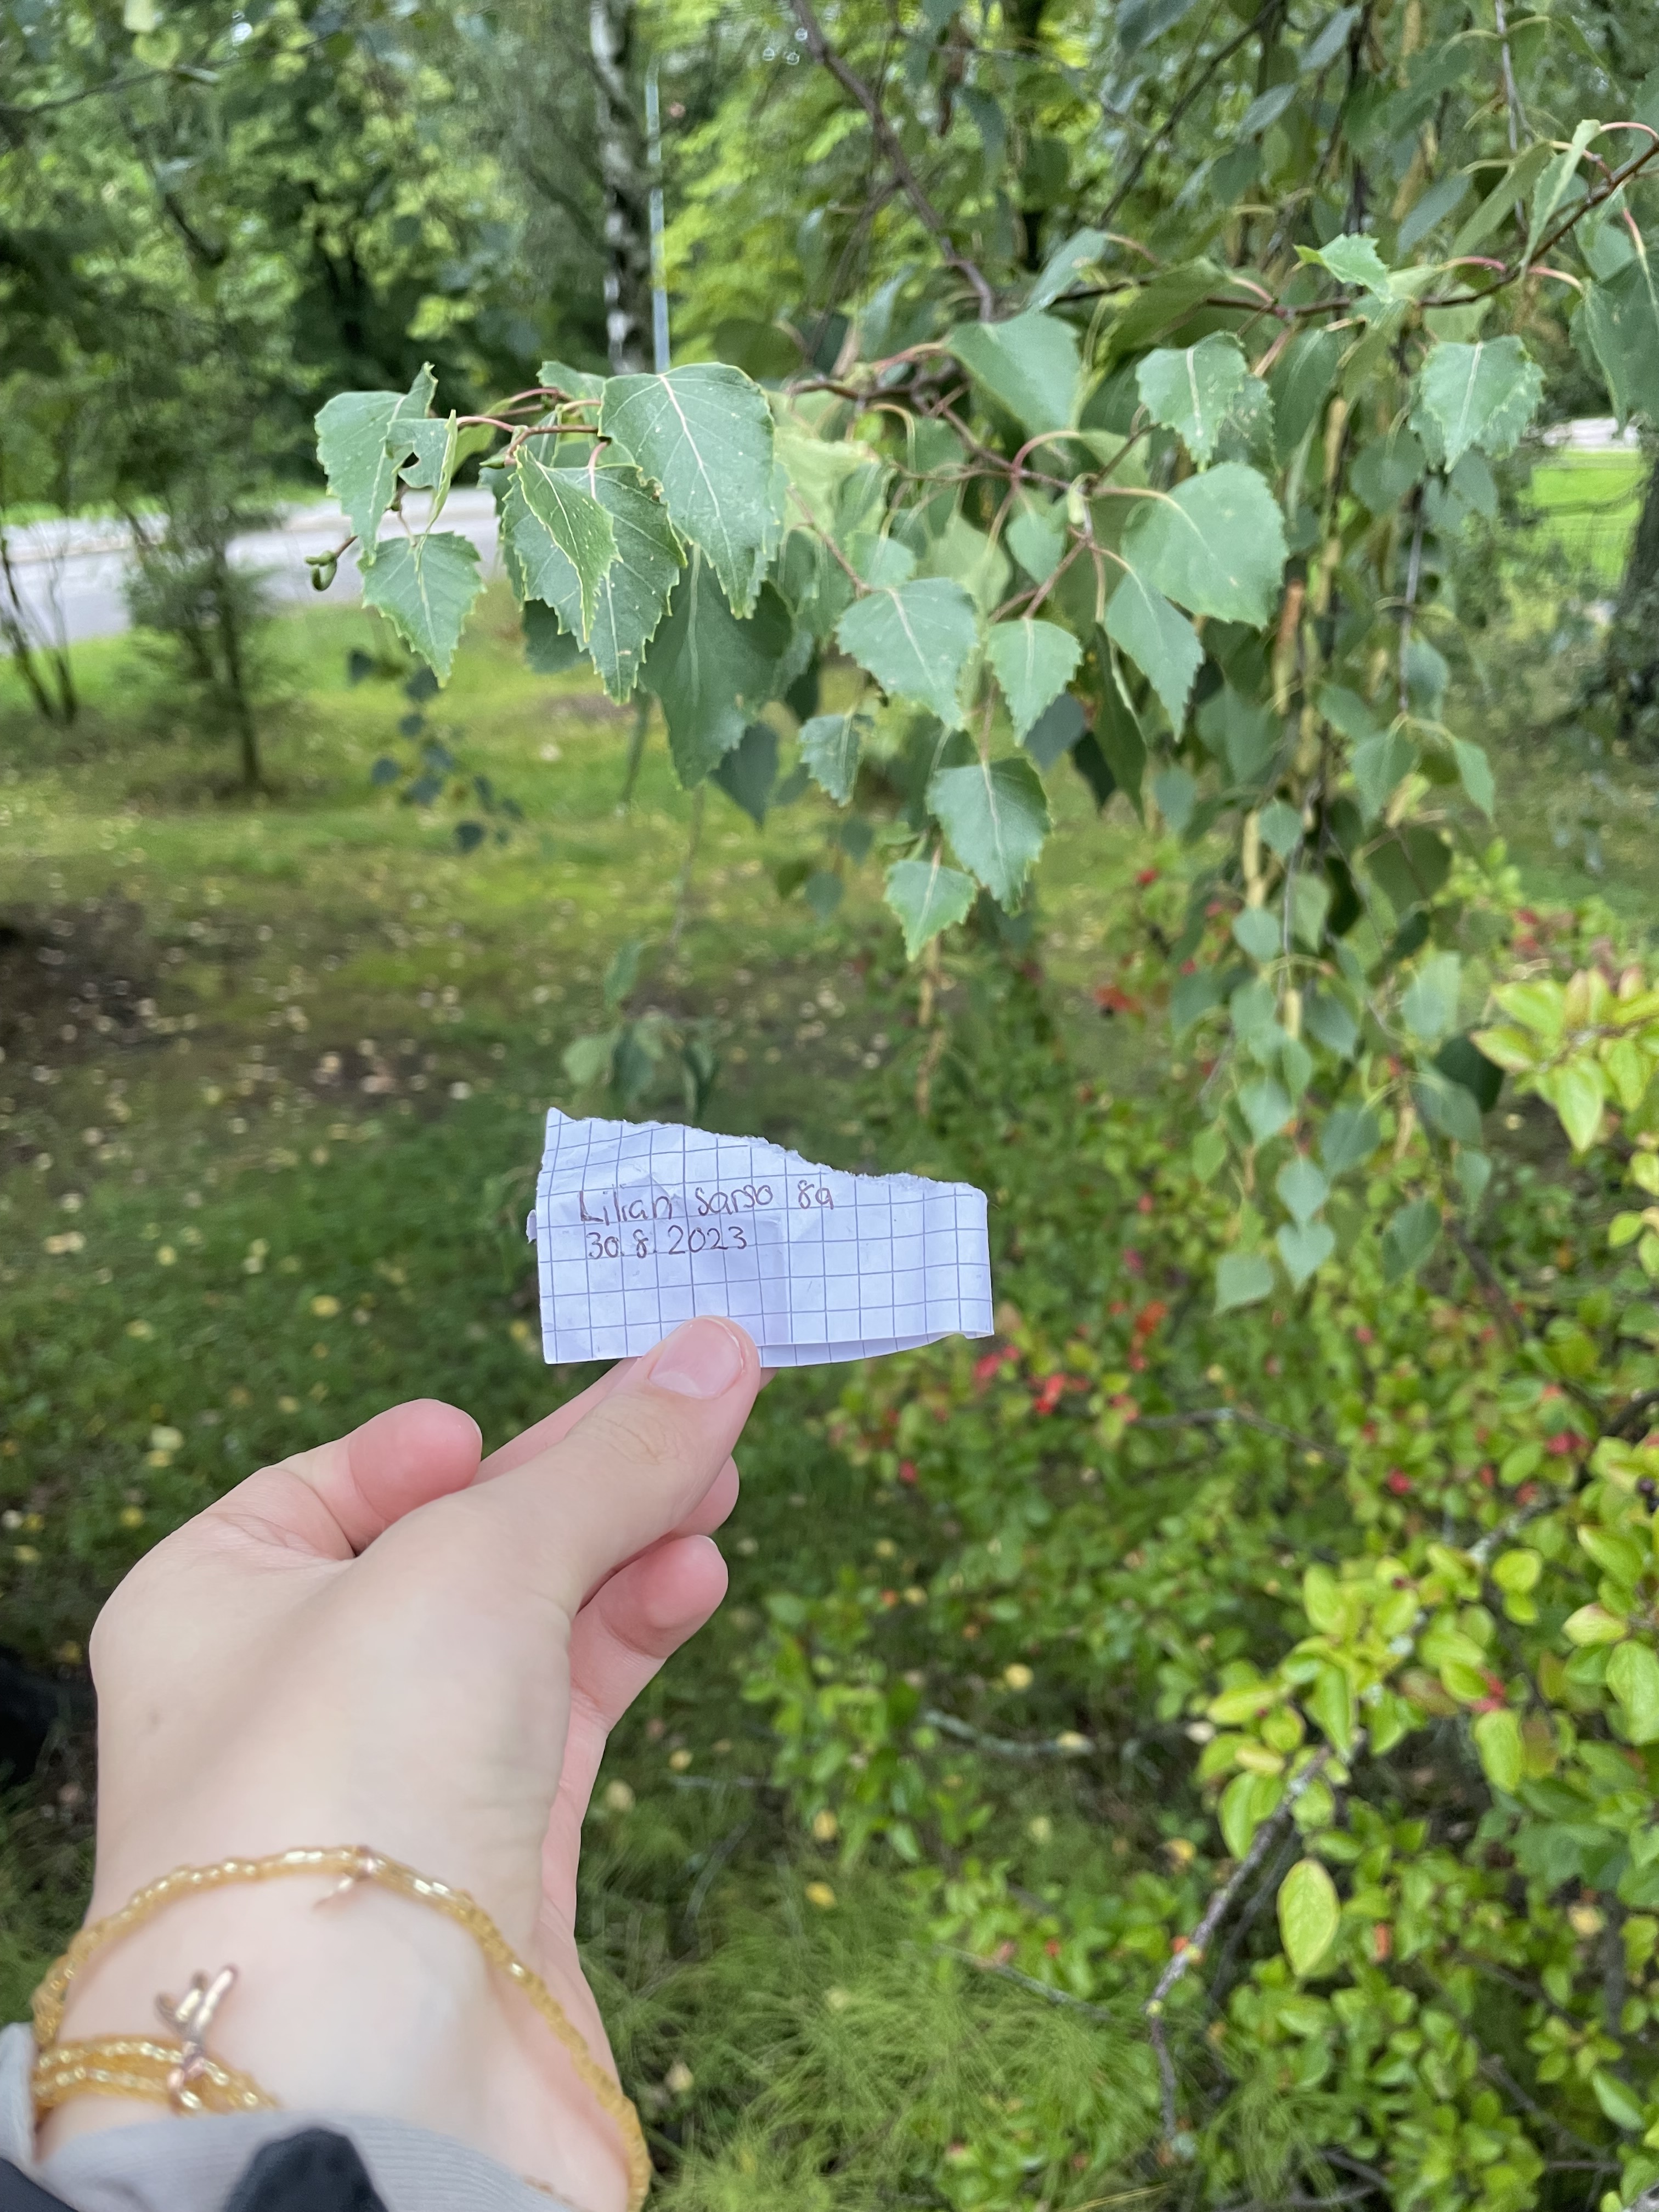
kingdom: Plantae
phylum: Tracheophyta
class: Magnoliopsida
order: Fagales
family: Betulaceae
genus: Betula
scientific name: Betula pubescens
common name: Downy birch
